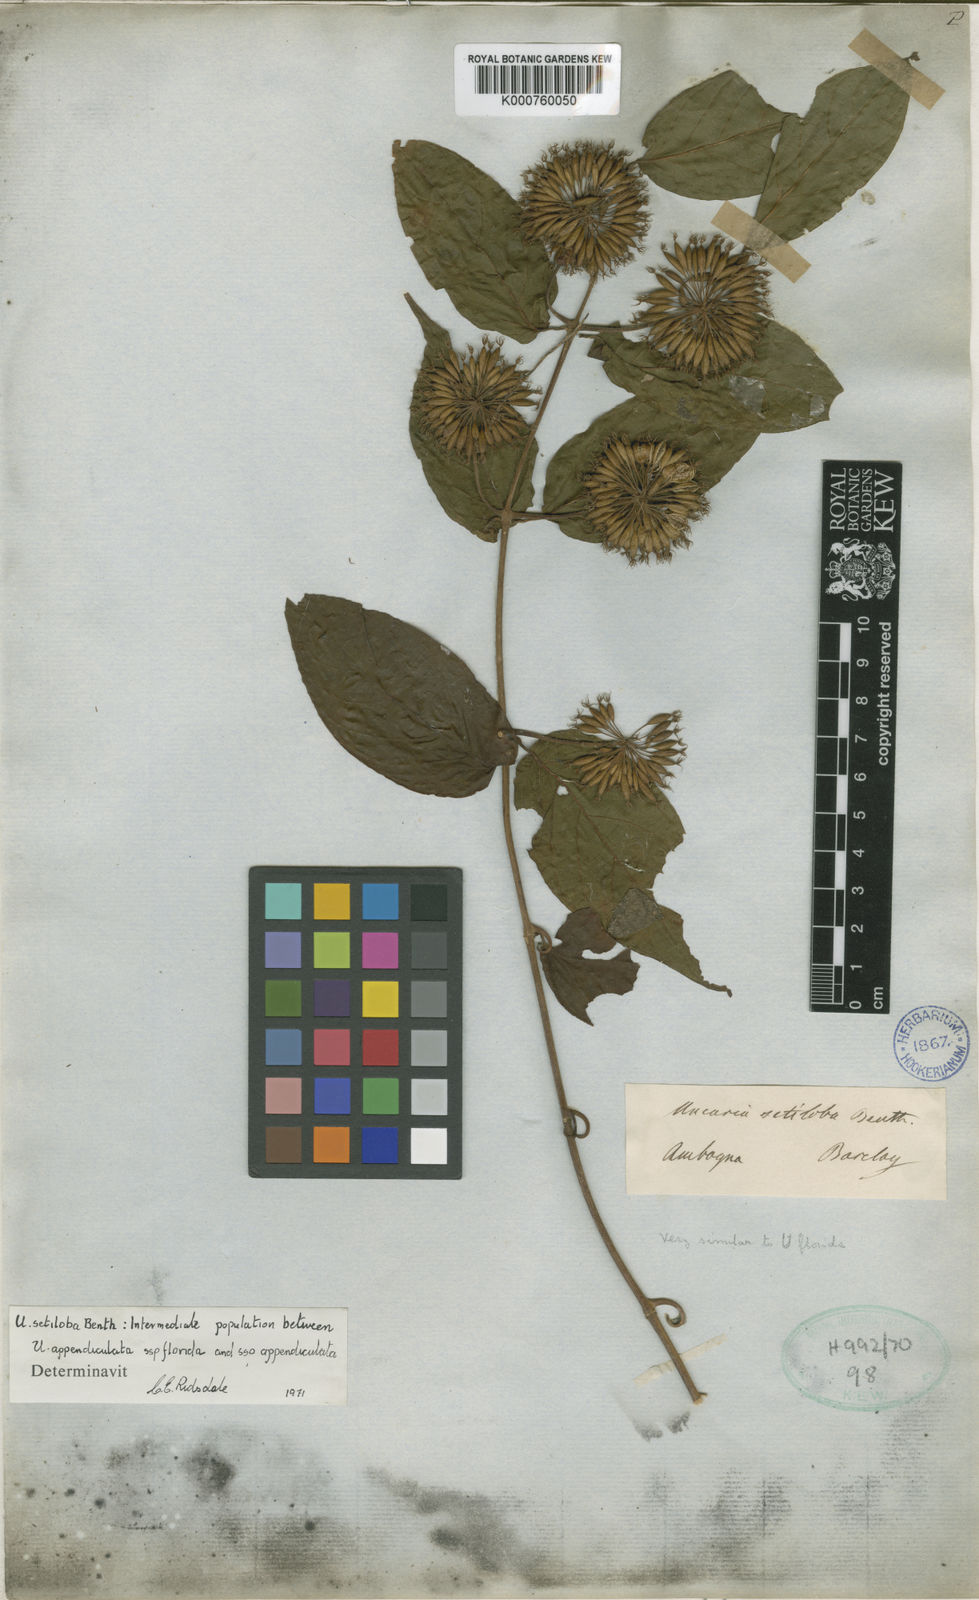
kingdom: Plantae
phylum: Tracheophyta
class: Magnoliopsida
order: Gentianales
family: Rubiaceae
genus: Uncaria
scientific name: Uncaria lanosa
